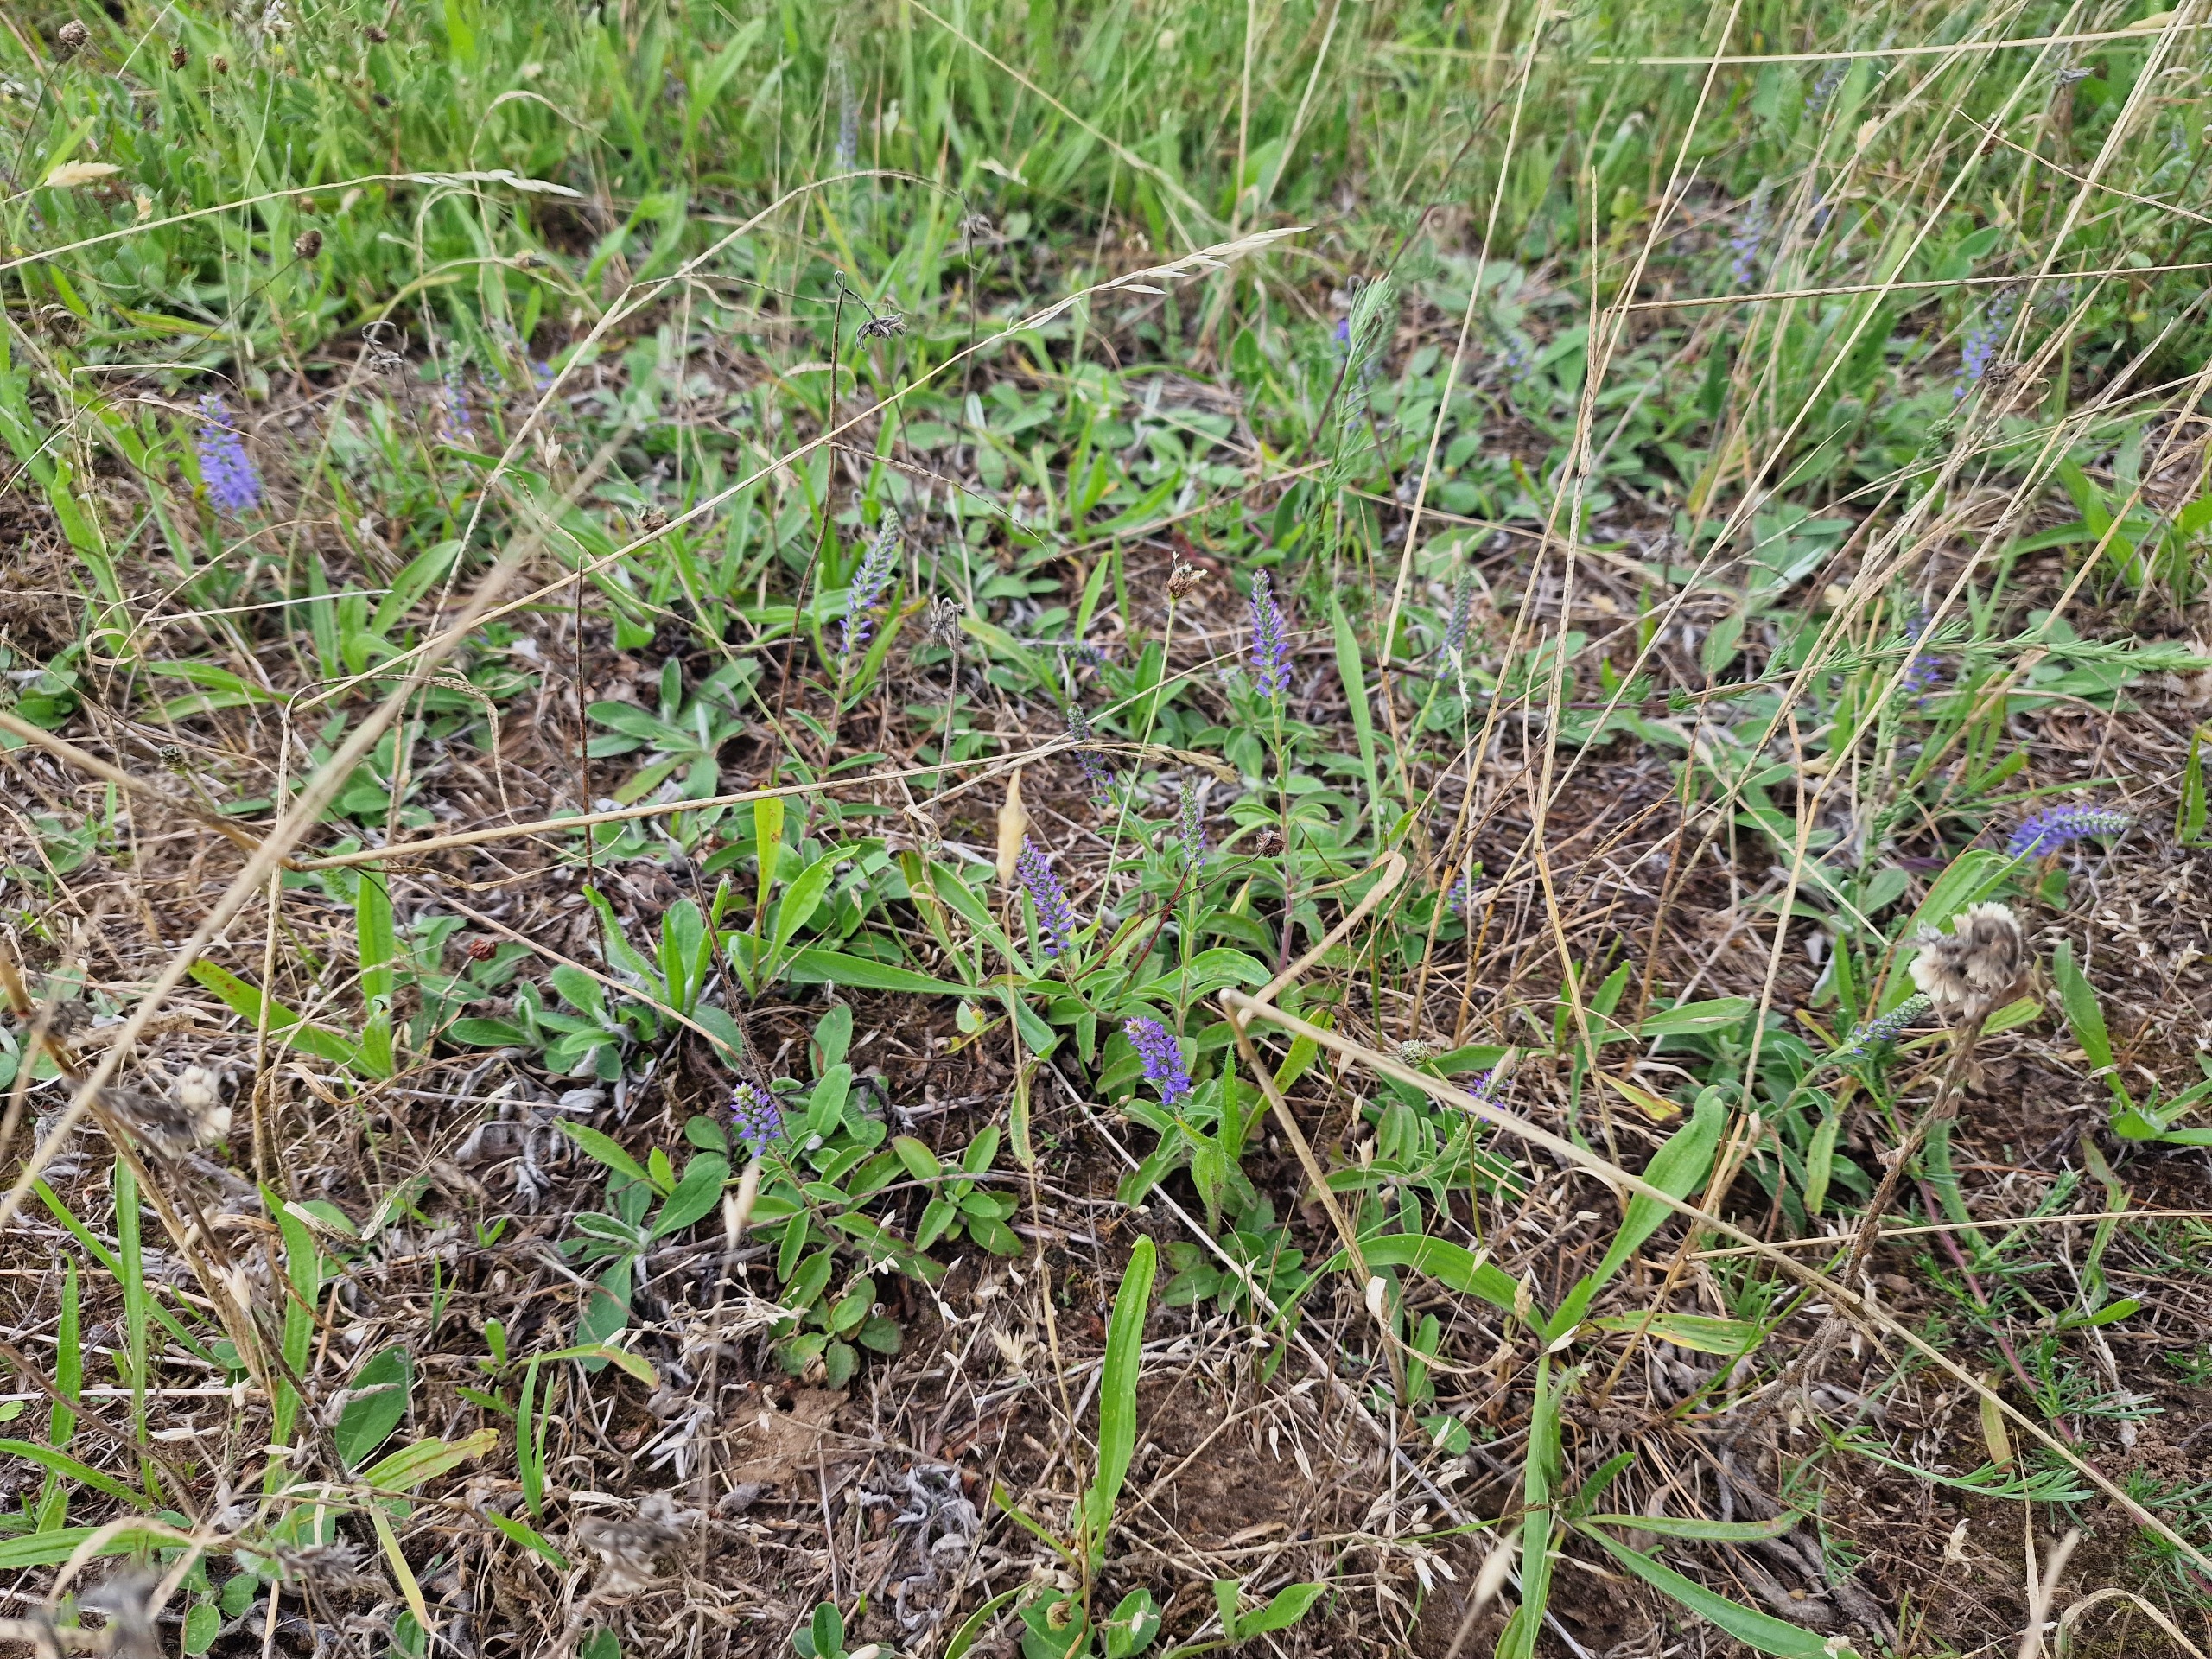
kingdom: Plantae
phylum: Tracheophyta
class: Magnoliopsida
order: Lamiales
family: Plantaginaceae
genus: Veronica
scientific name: Veronica spicata
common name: Aks-ærenpris
